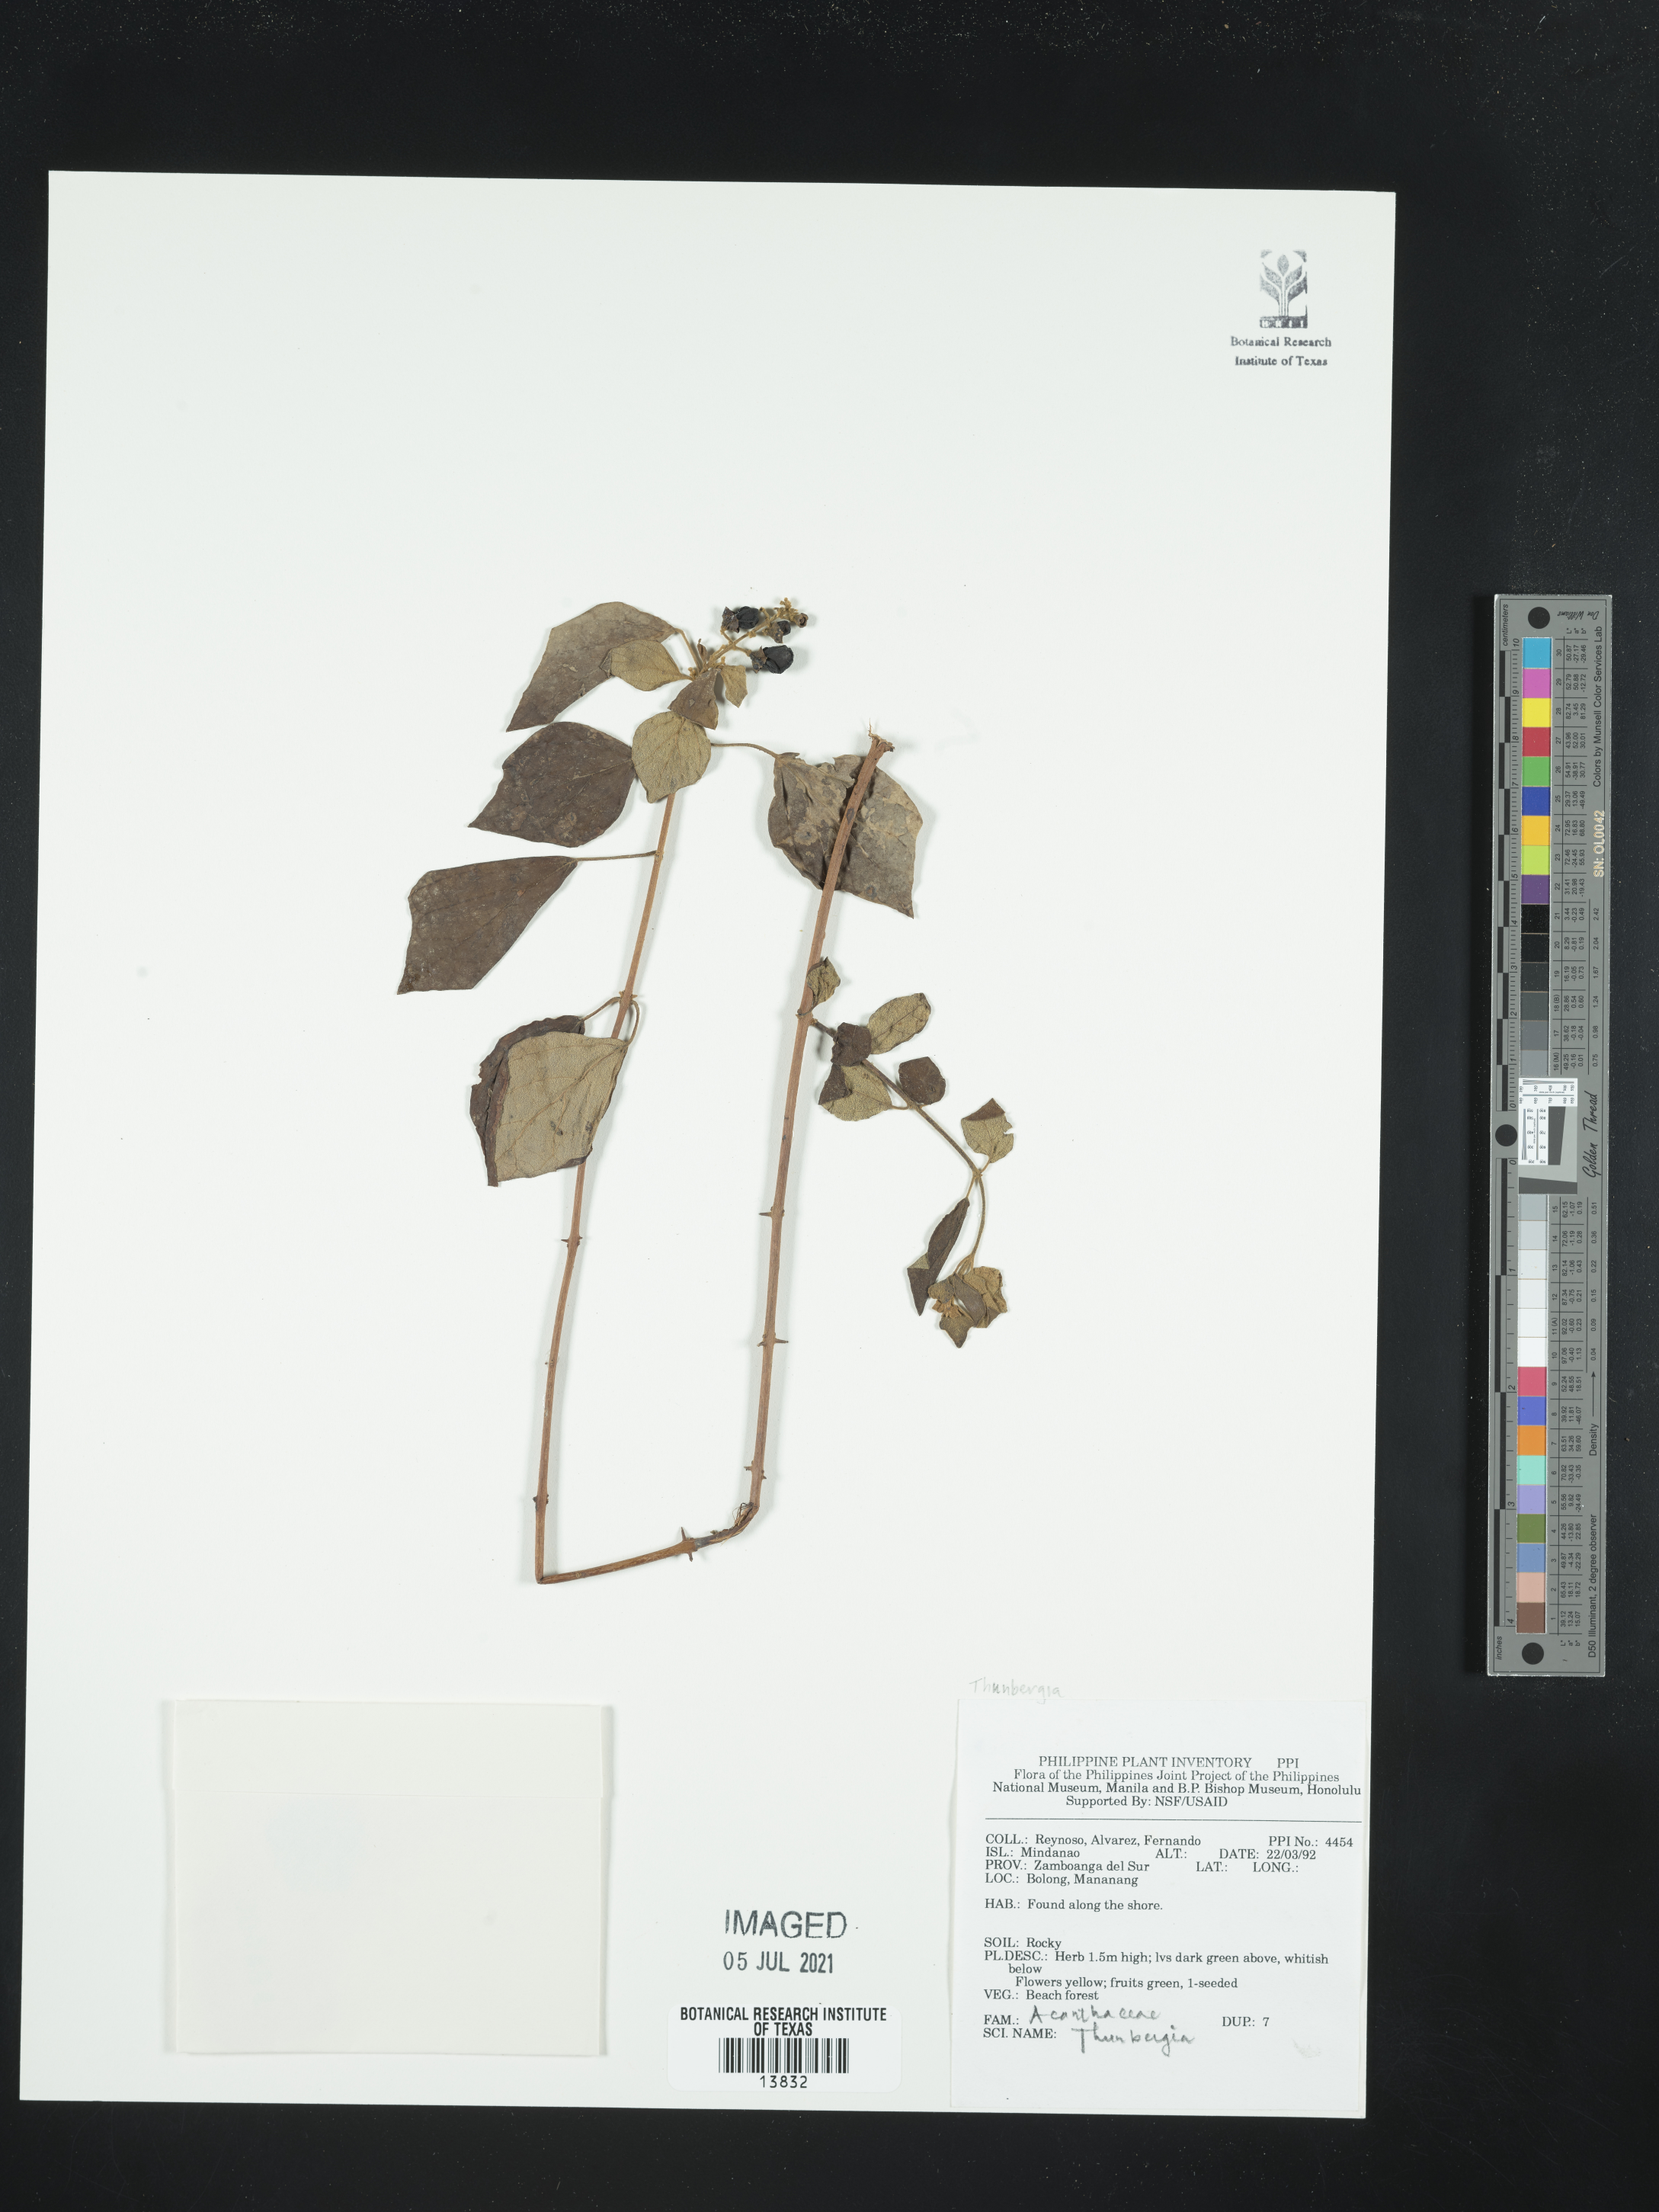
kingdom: Plantae
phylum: Tracheophyta
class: Magnoliopsida
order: Lamiales
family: Acanthaceae
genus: Thunbergia
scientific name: Thunbergia
